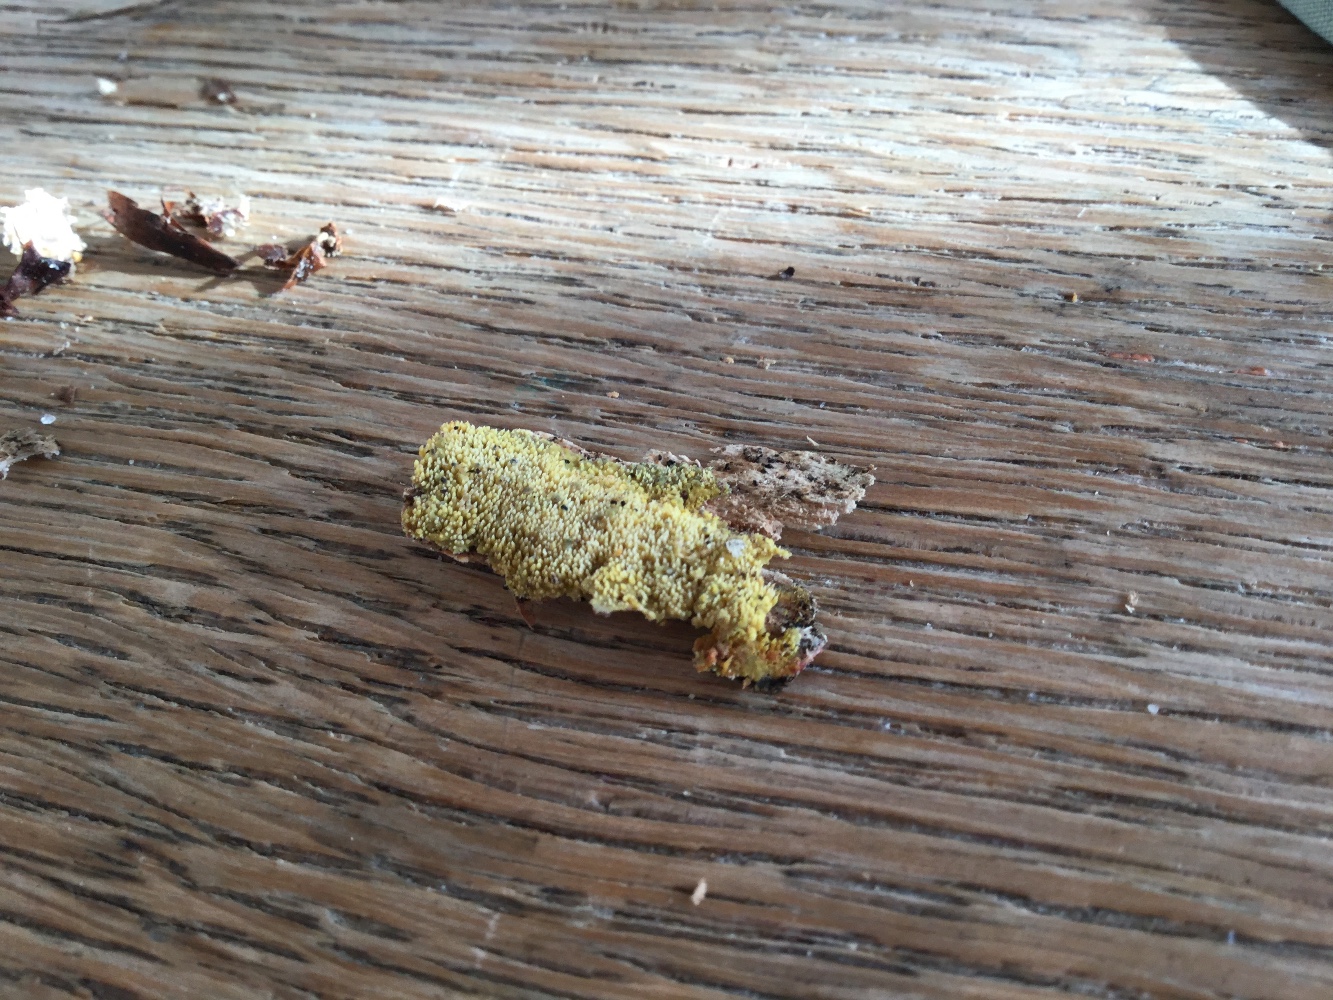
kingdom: Fungi
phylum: Basidiomycota
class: Agaricomycetes
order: Polyporales
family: Meruliaceae
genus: Mycoacia
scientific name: Mycoacia uda
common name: citrongul vokspig
